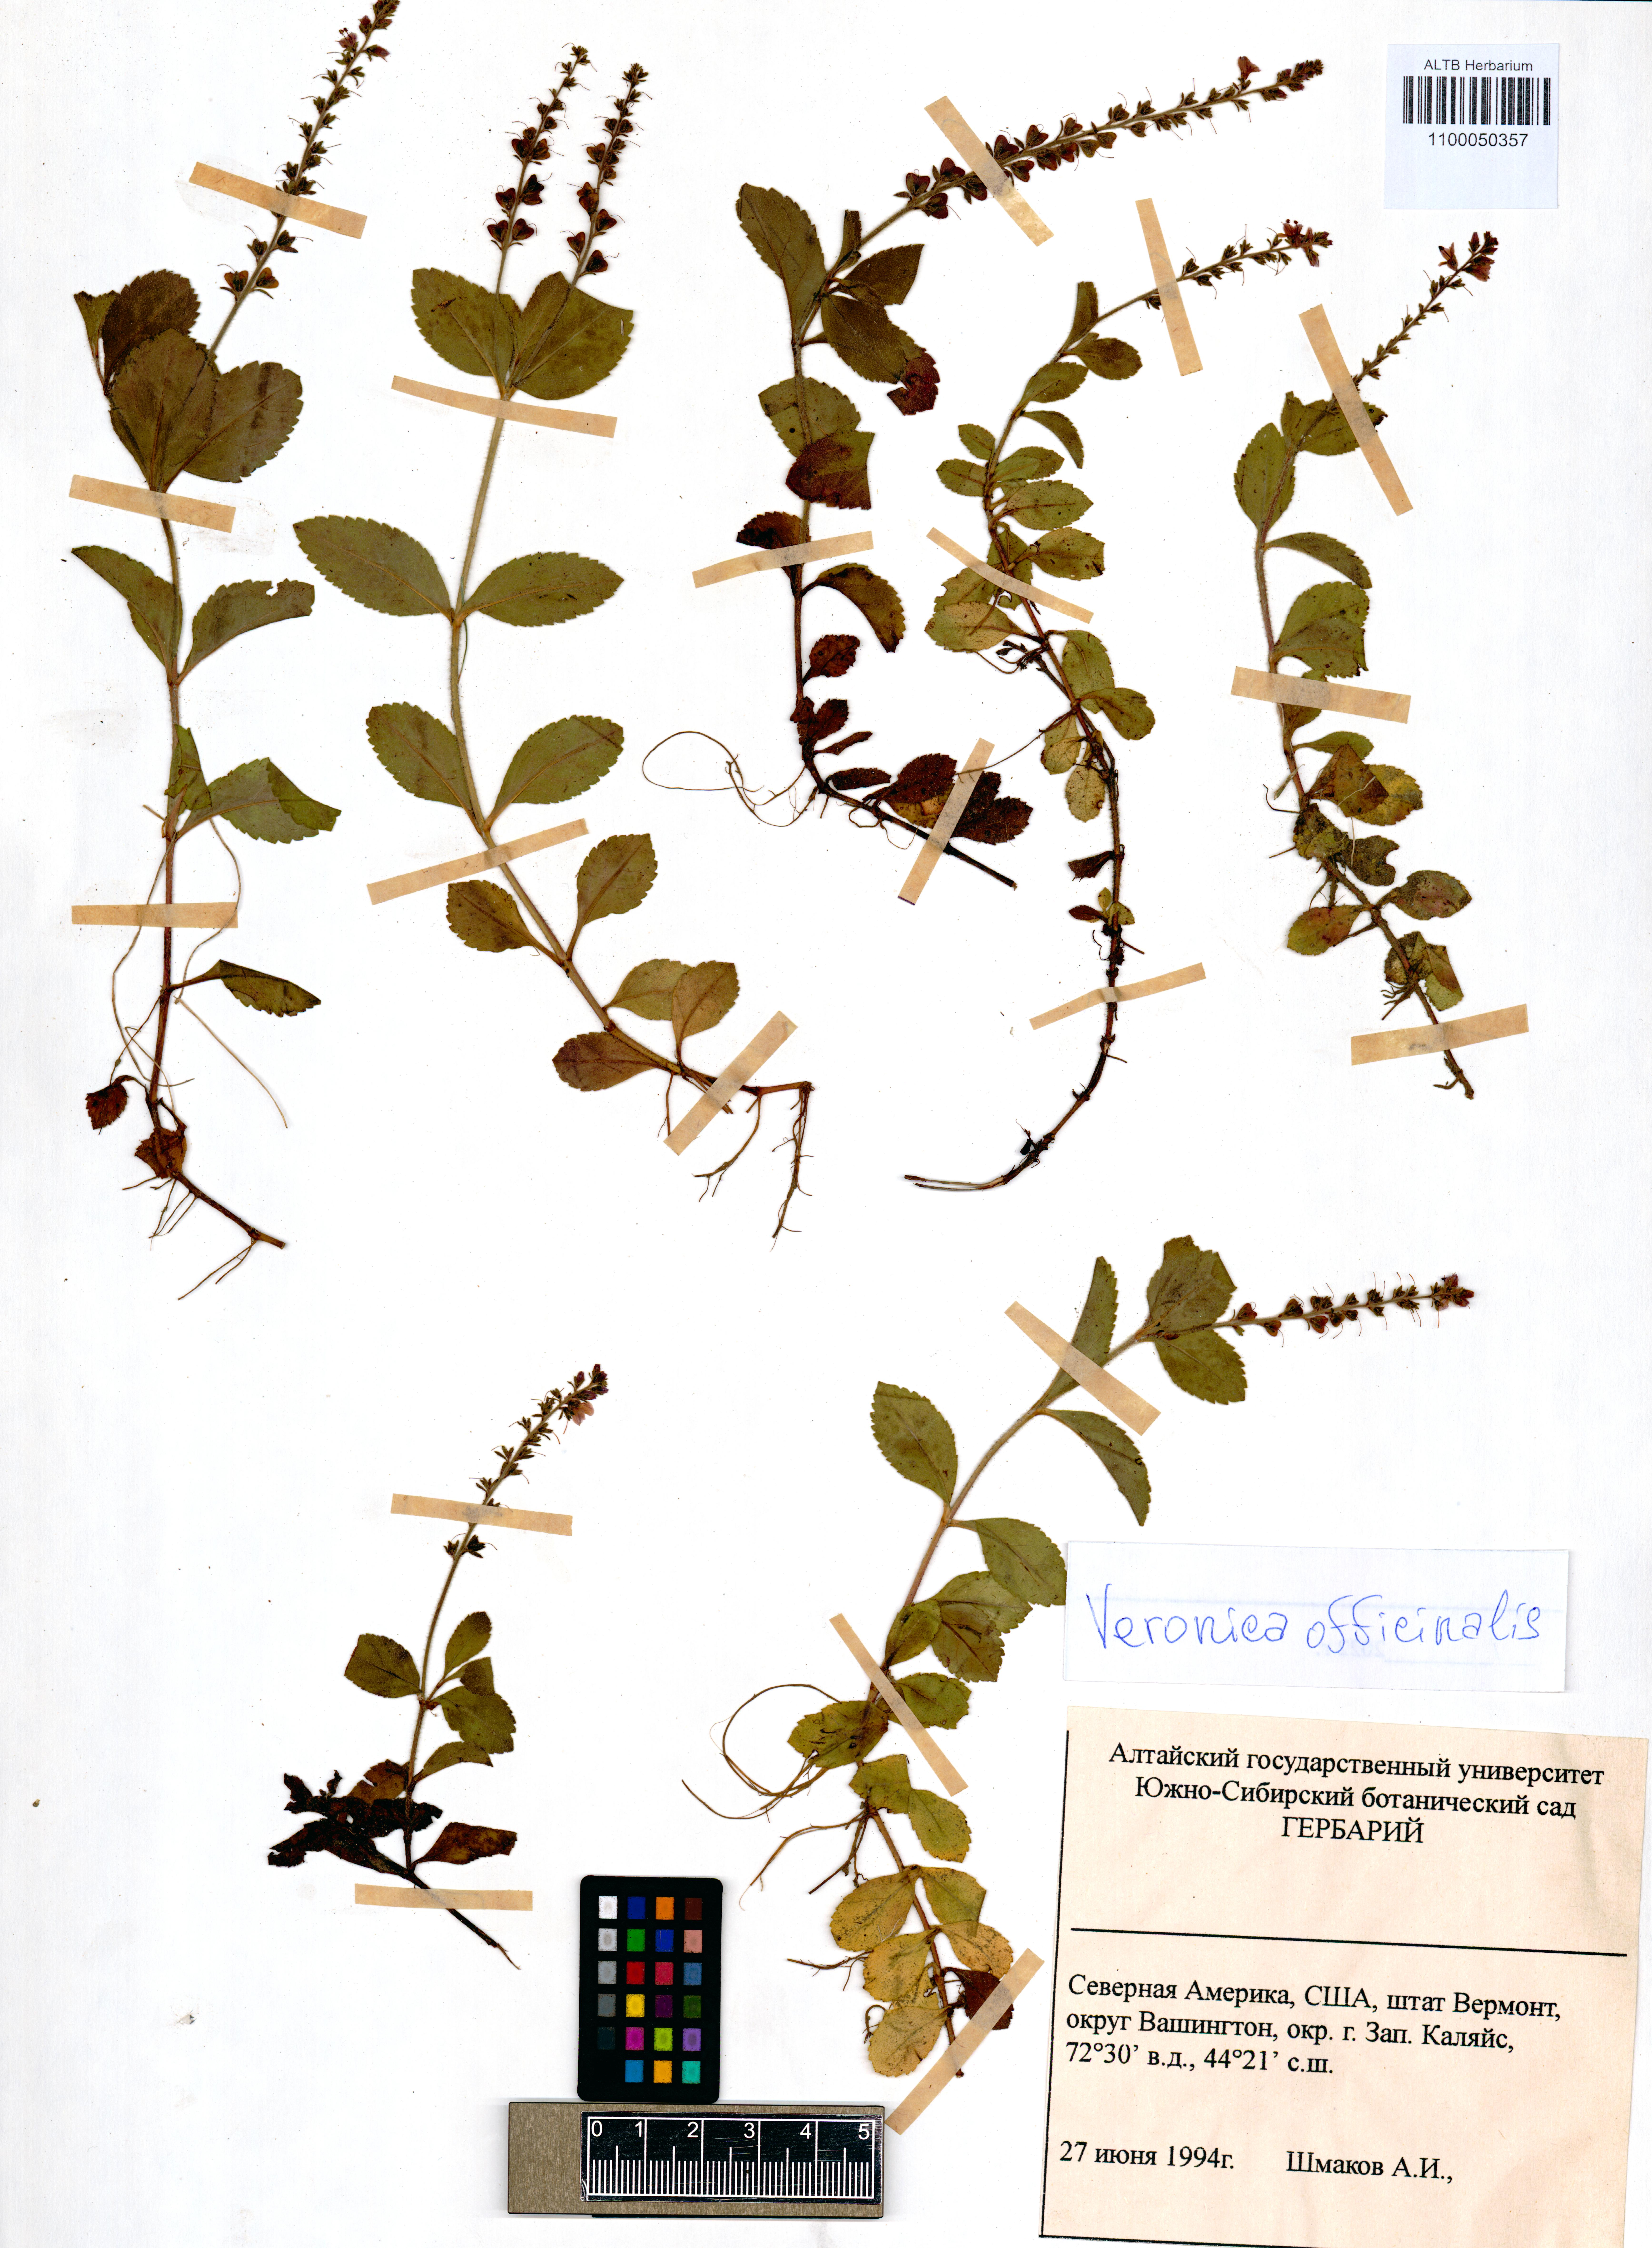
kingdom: Plantae
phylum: Tracheophyta
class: Magnoliopsida
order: Lamiales
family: Plantaginaceae
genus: Veronica
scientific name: Veronica officinalis
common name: Common speedwell
